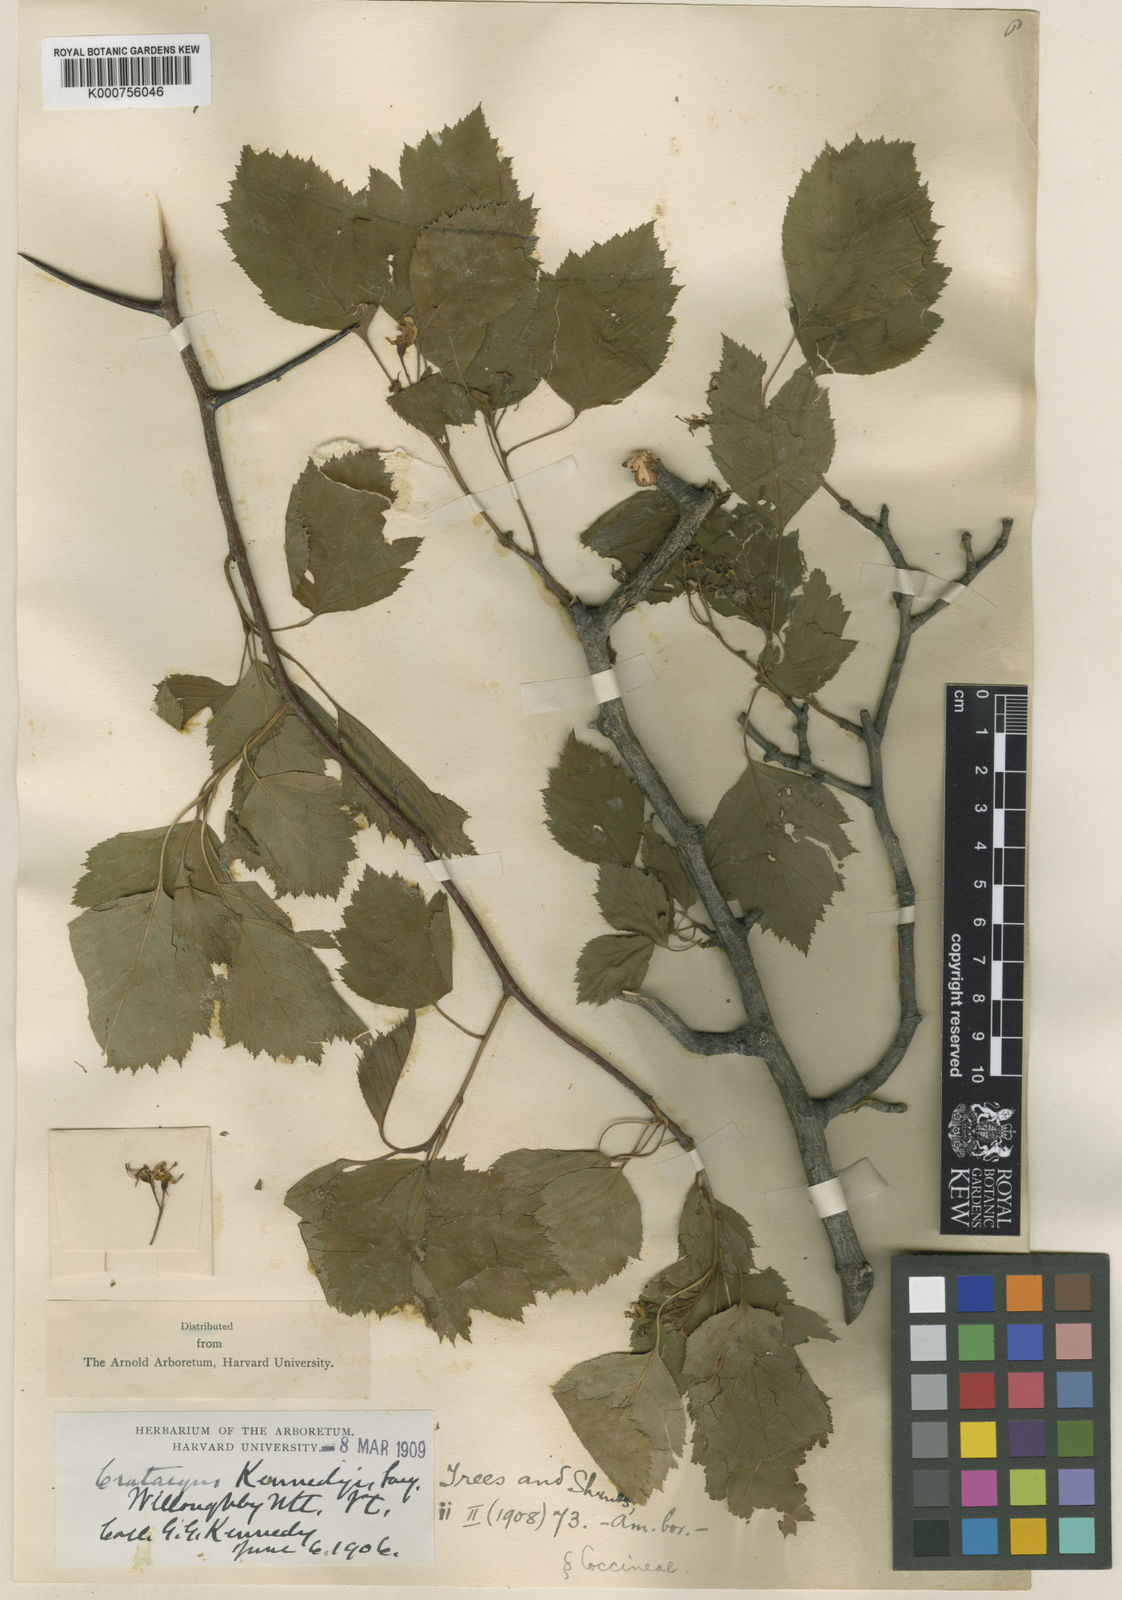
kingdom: Plantae
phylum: Tracheophyta
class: Magnoliopsida
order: Rosales
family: Rosaceae
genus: Crataegus
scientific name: Crataegus kennedyi
